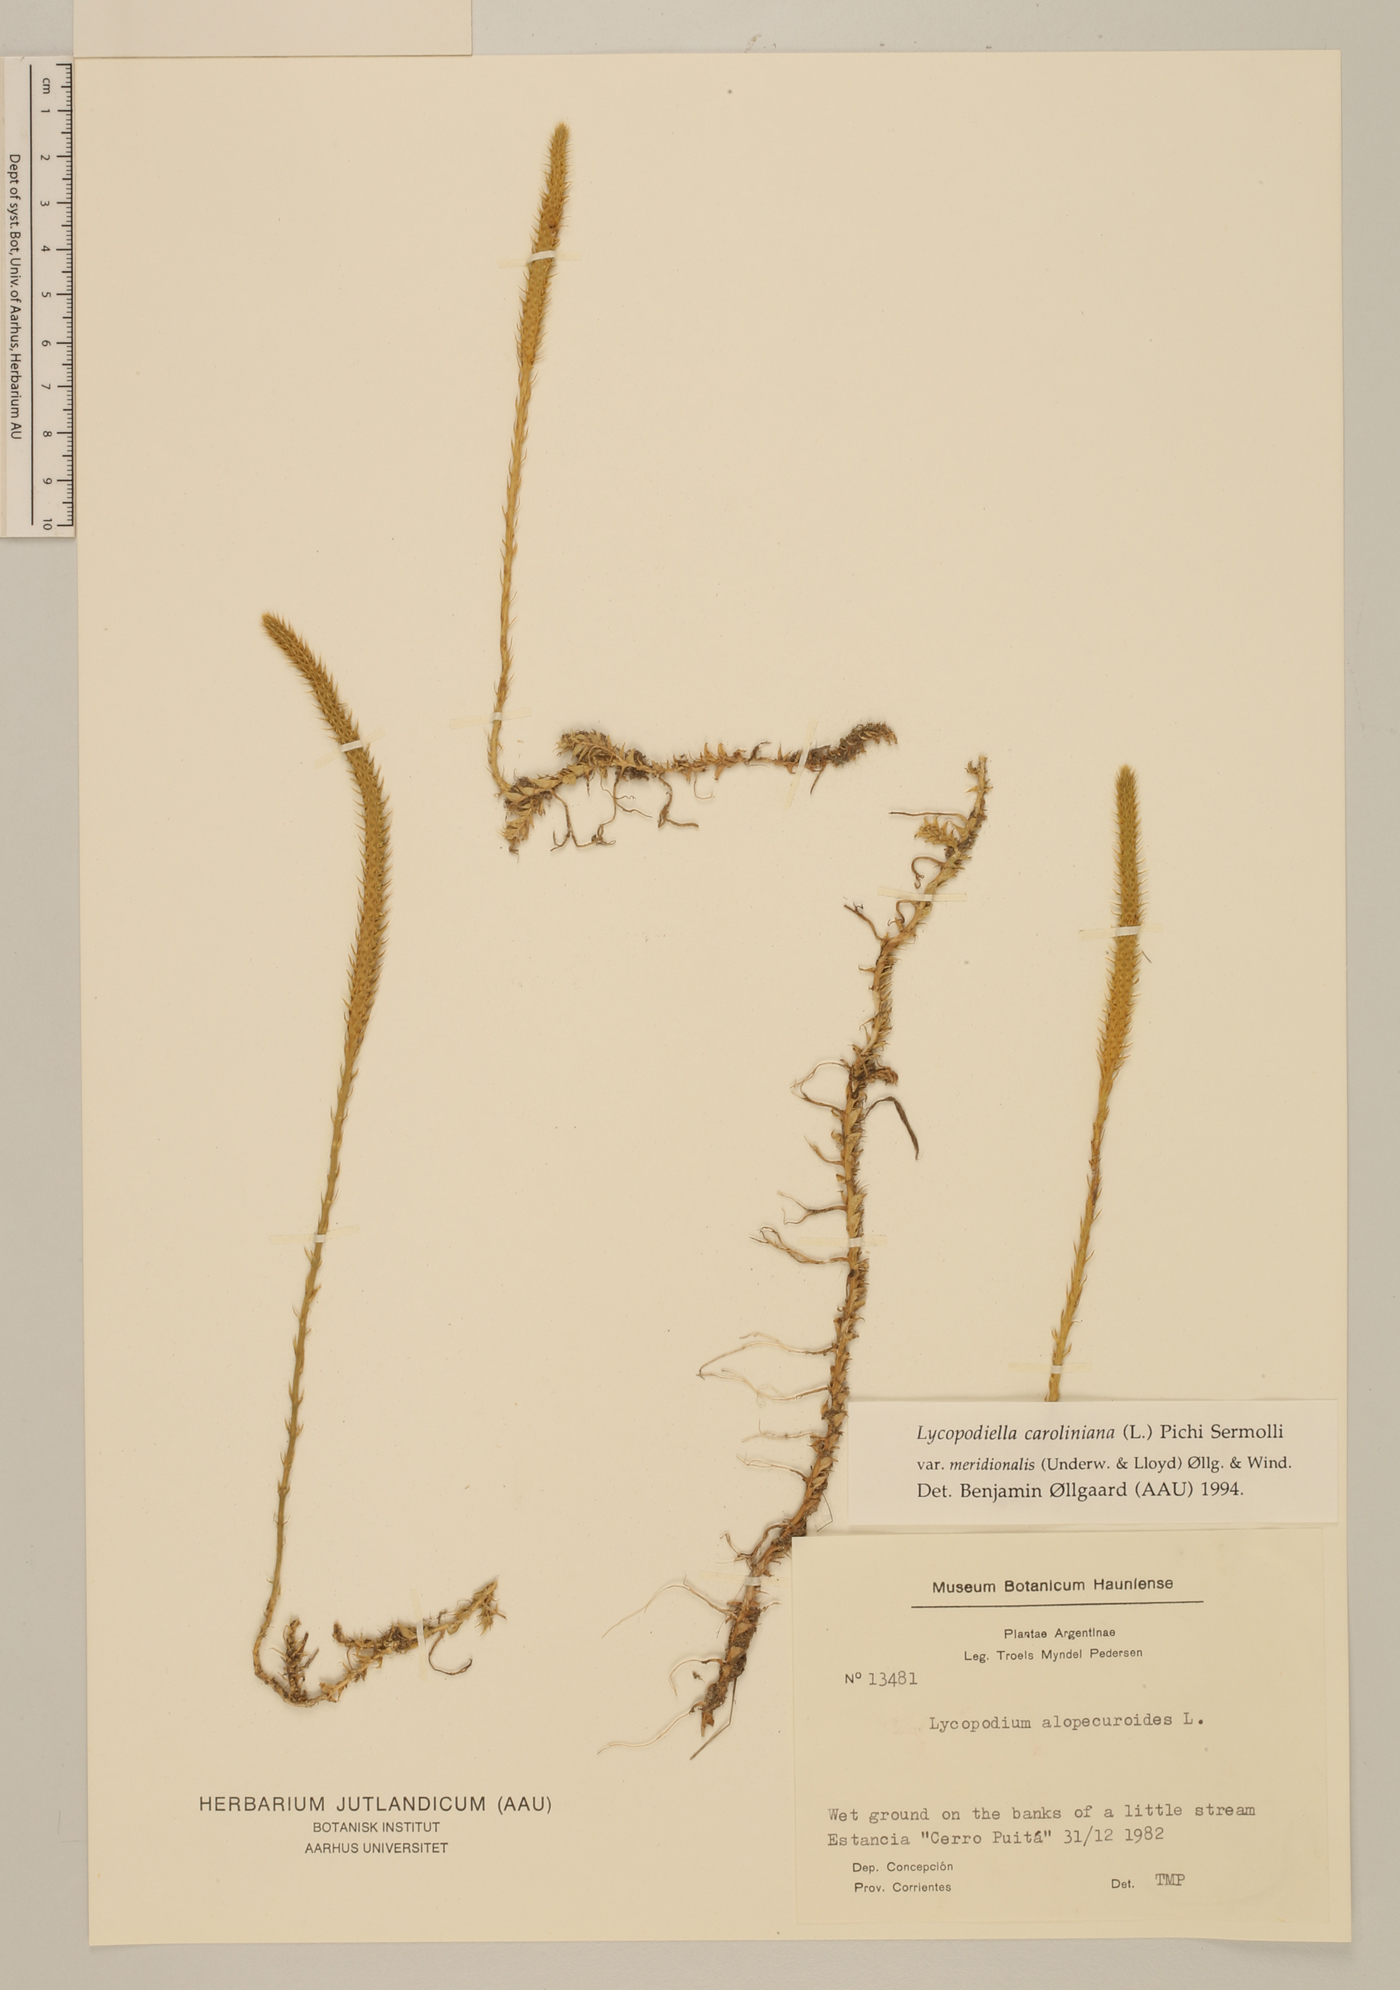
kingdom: Plantae
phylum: Tracheophyta
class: Lycopodiopsida
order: Lycopodiales
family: Lycopodiaceae
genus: Pseudolycopodiella
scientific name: Pseudolycopodiella meridionalis
